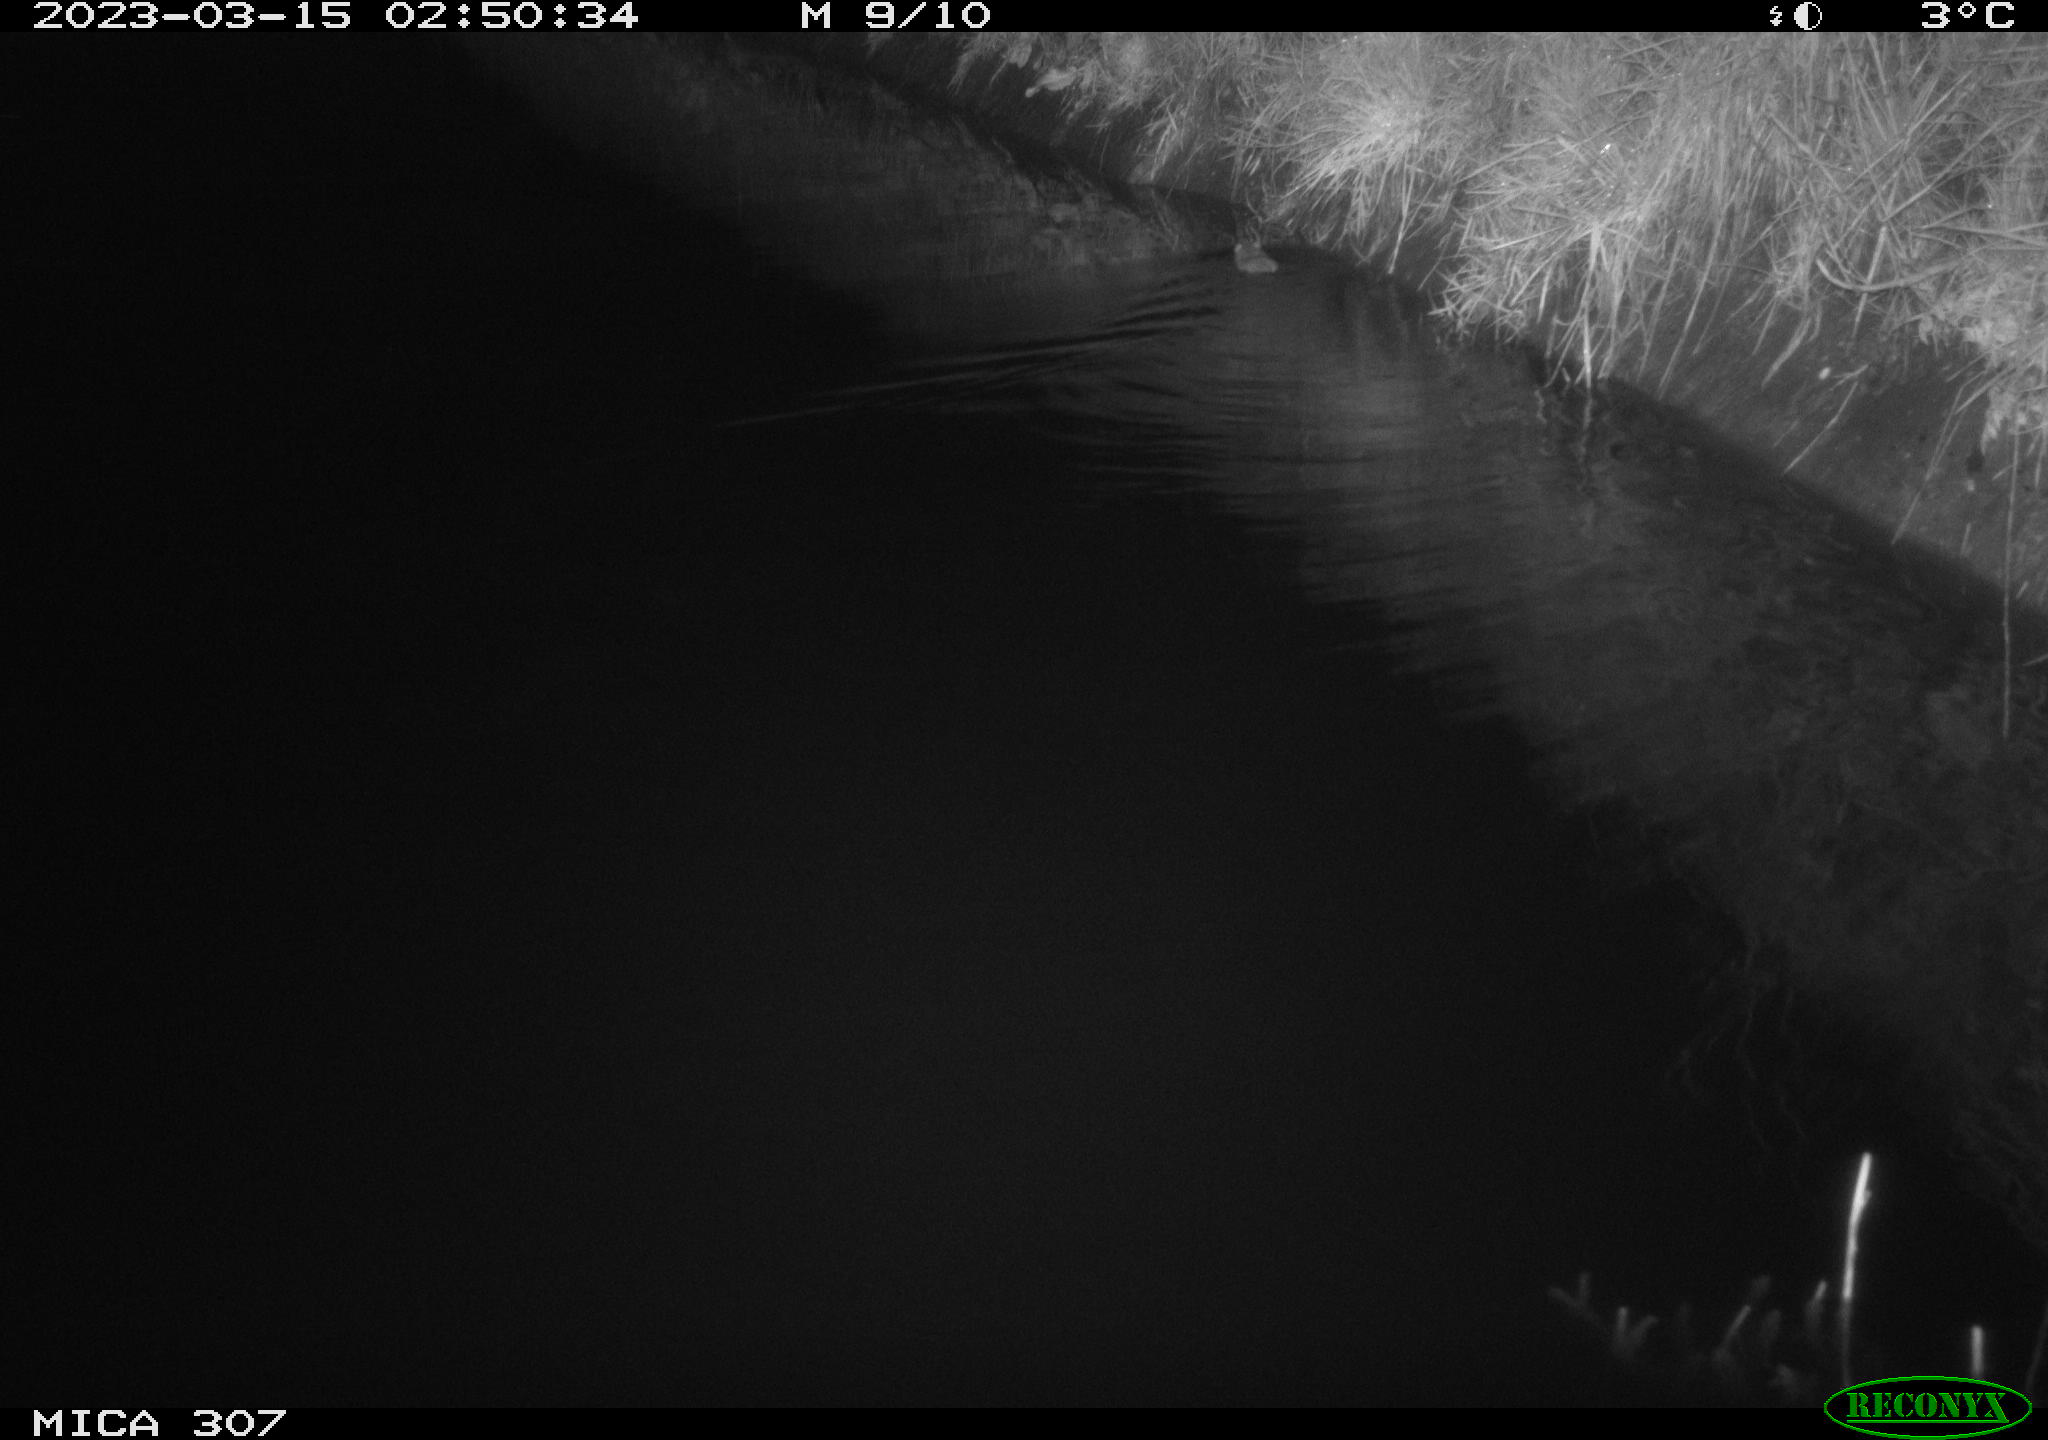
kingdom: Animalia
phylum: Chordata
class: Mammalia
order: Rodentia
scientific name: Rodentia
